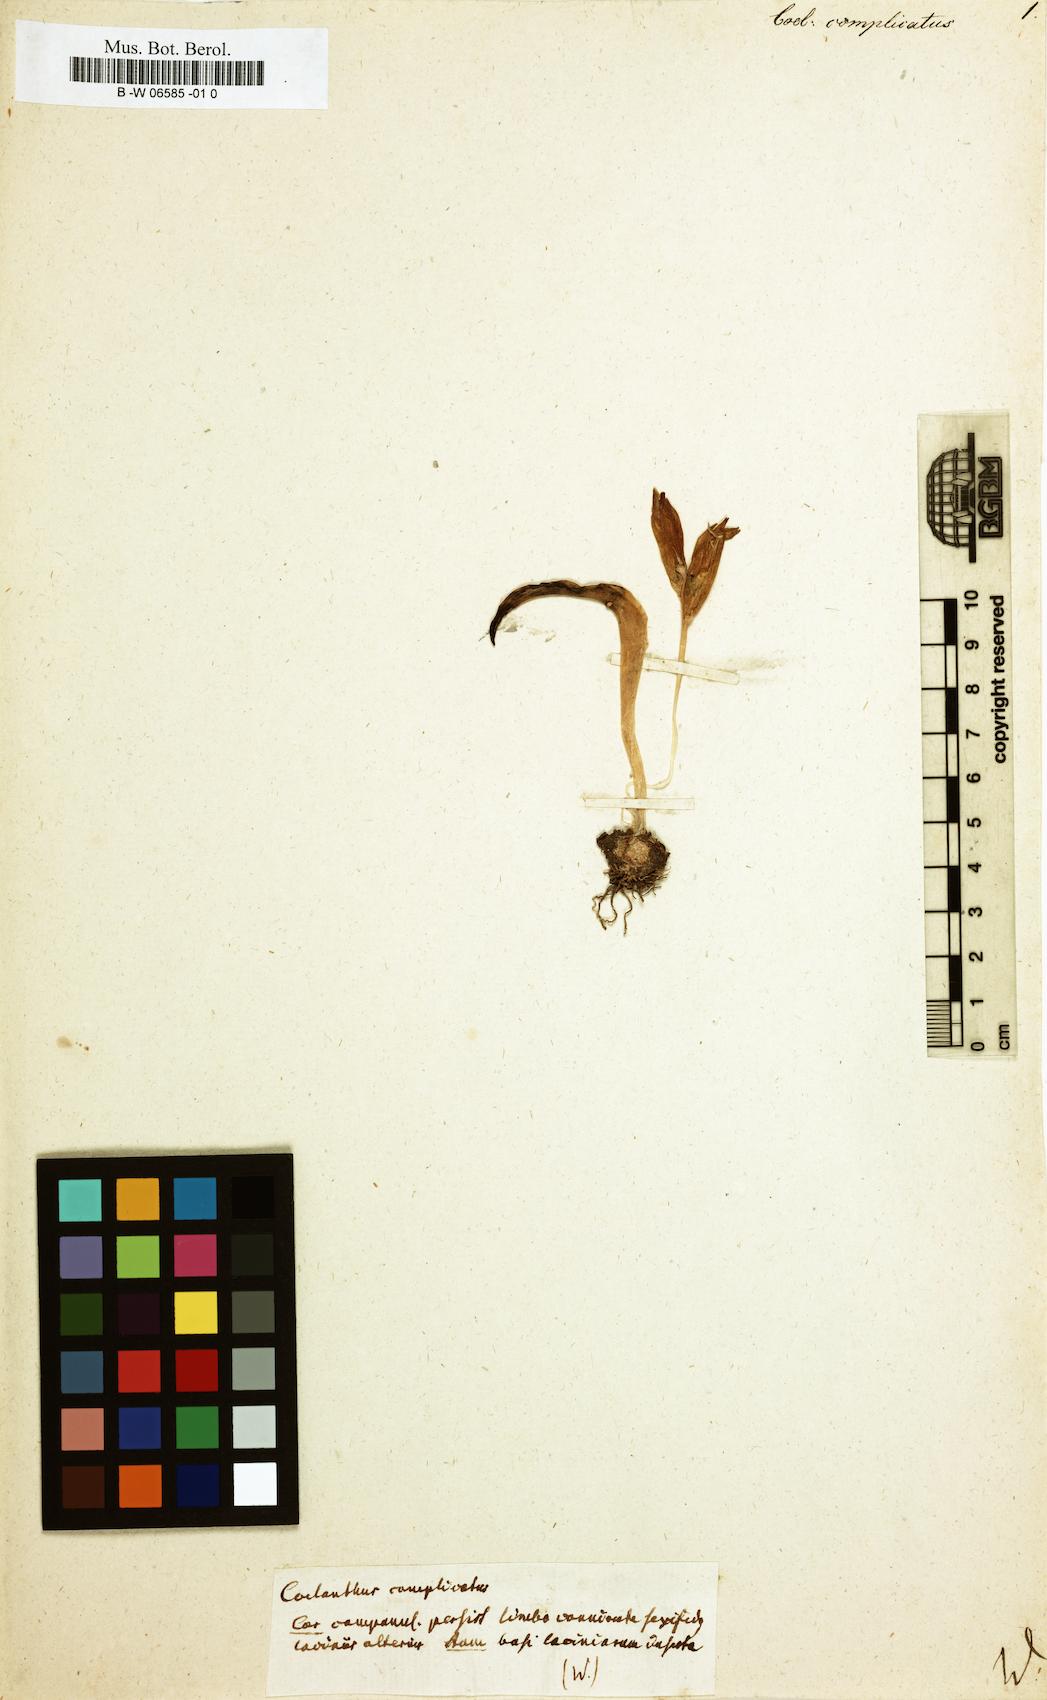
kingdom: Plantae
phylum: Tracheophyta
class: Liliopsida
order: Asparagales
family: Asparagaceae
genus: Lachenalia
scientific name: Lachenalia Coelanthus complicatus
